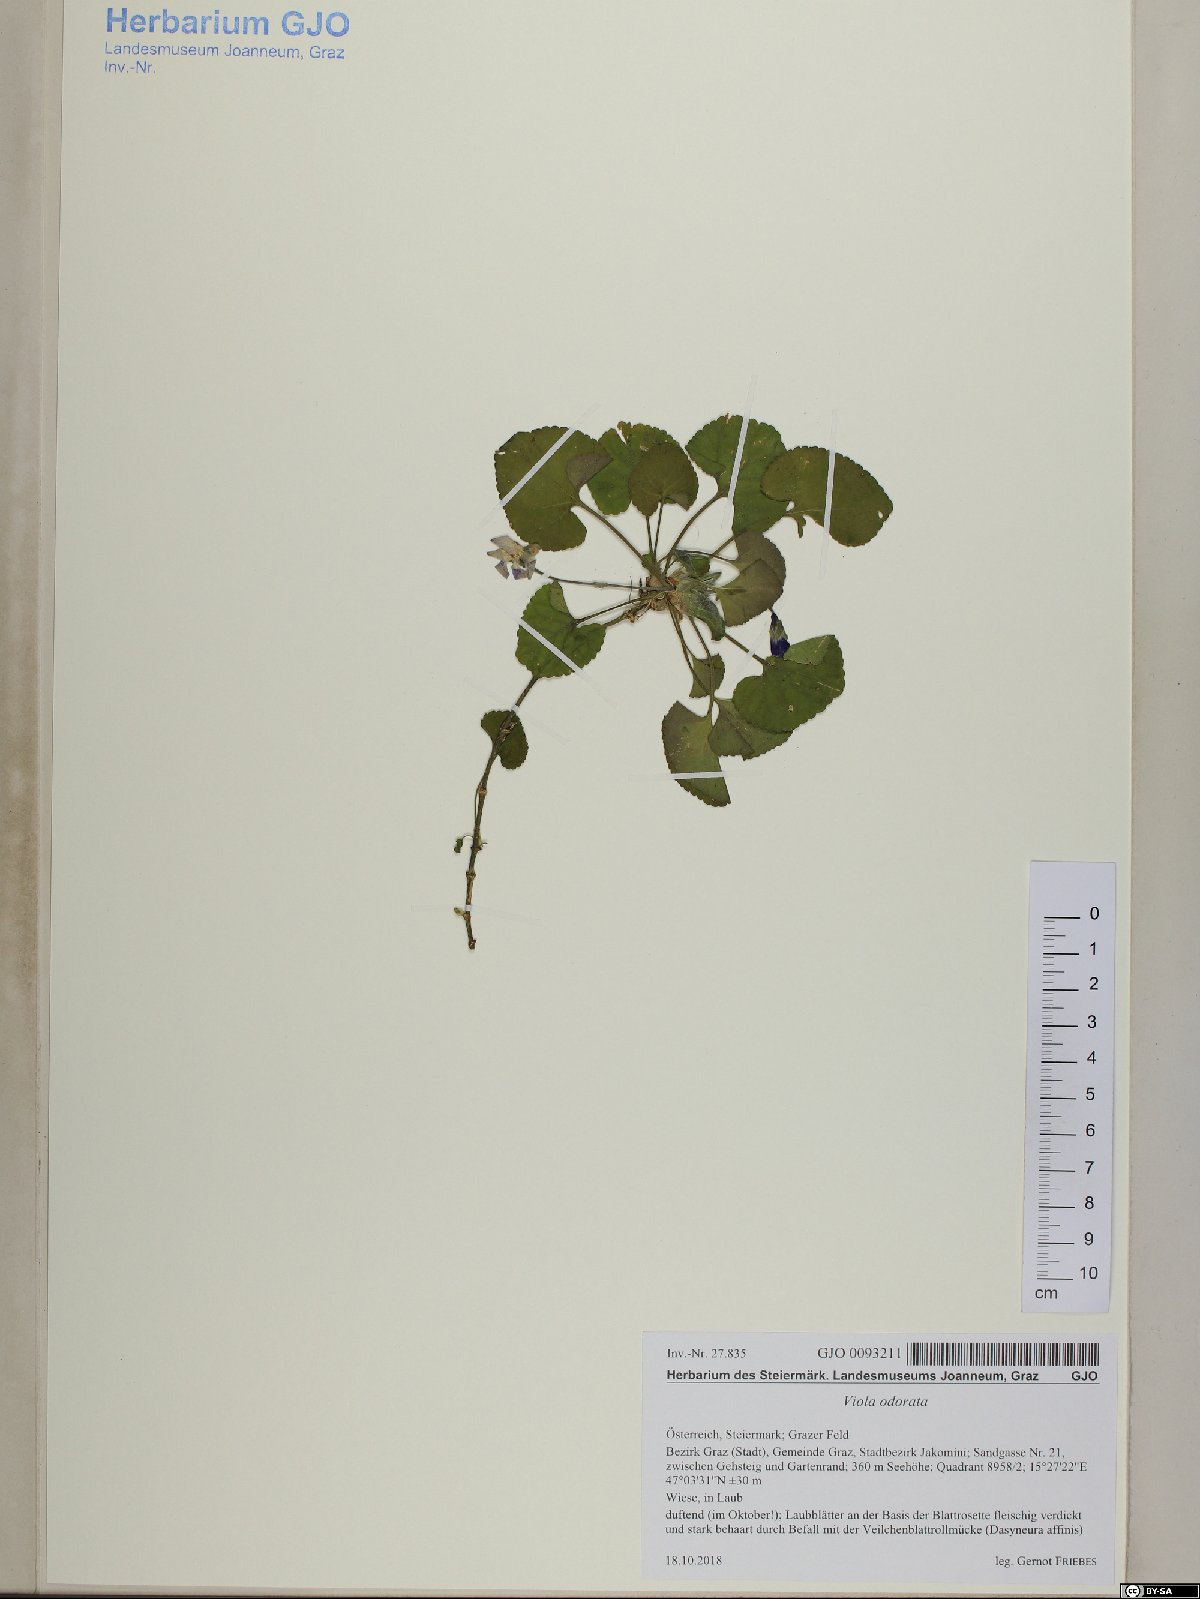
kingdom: Plantae
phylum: Tracheophyta
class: Magnoliopsida
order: Malpighiales
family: Violaceae
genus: Viola
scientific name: Viola odorata
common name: Sweet violet
